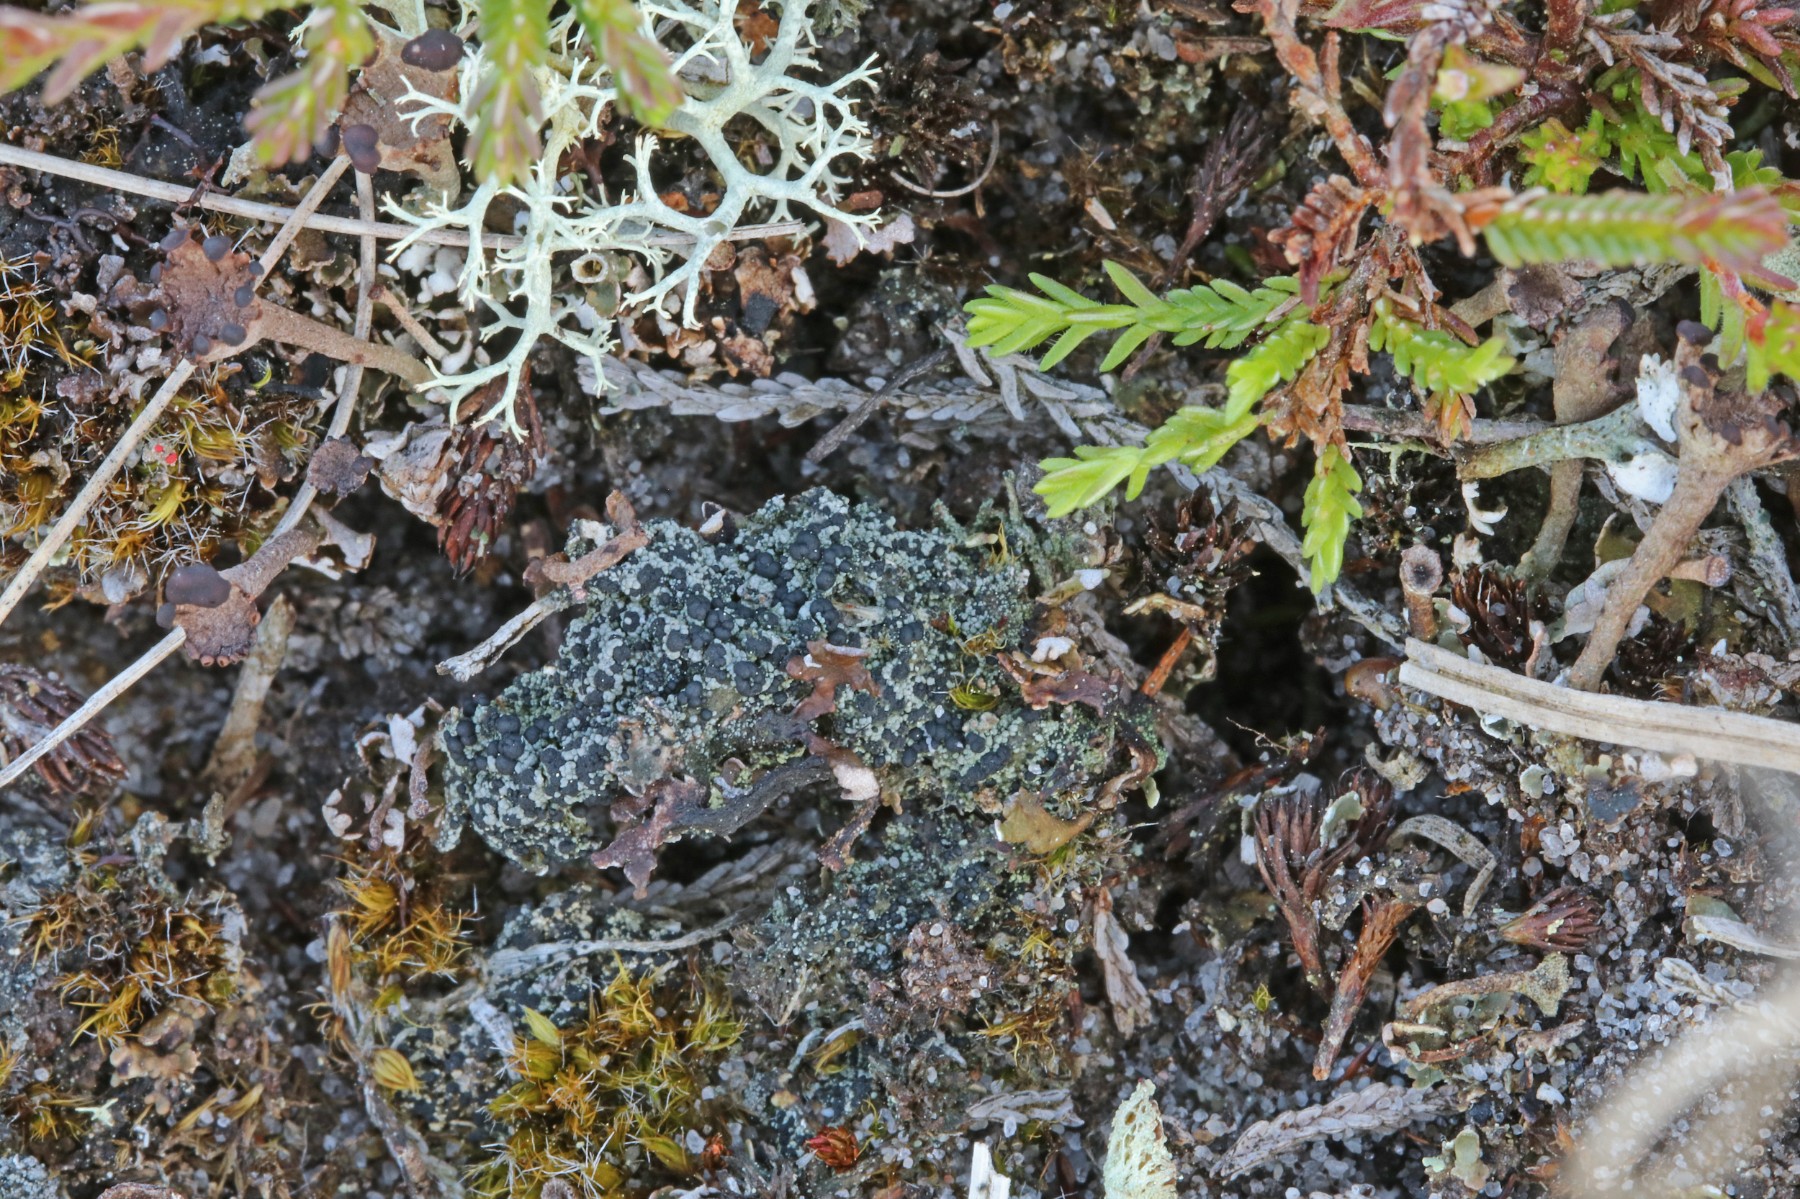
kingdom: Fungi
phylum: Ascomycota
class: Lecanoromycetes
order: Lecanorales
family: Byssolomataceae
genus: Micarea
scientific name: Micarea lignaria
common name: tørve-knaplav
